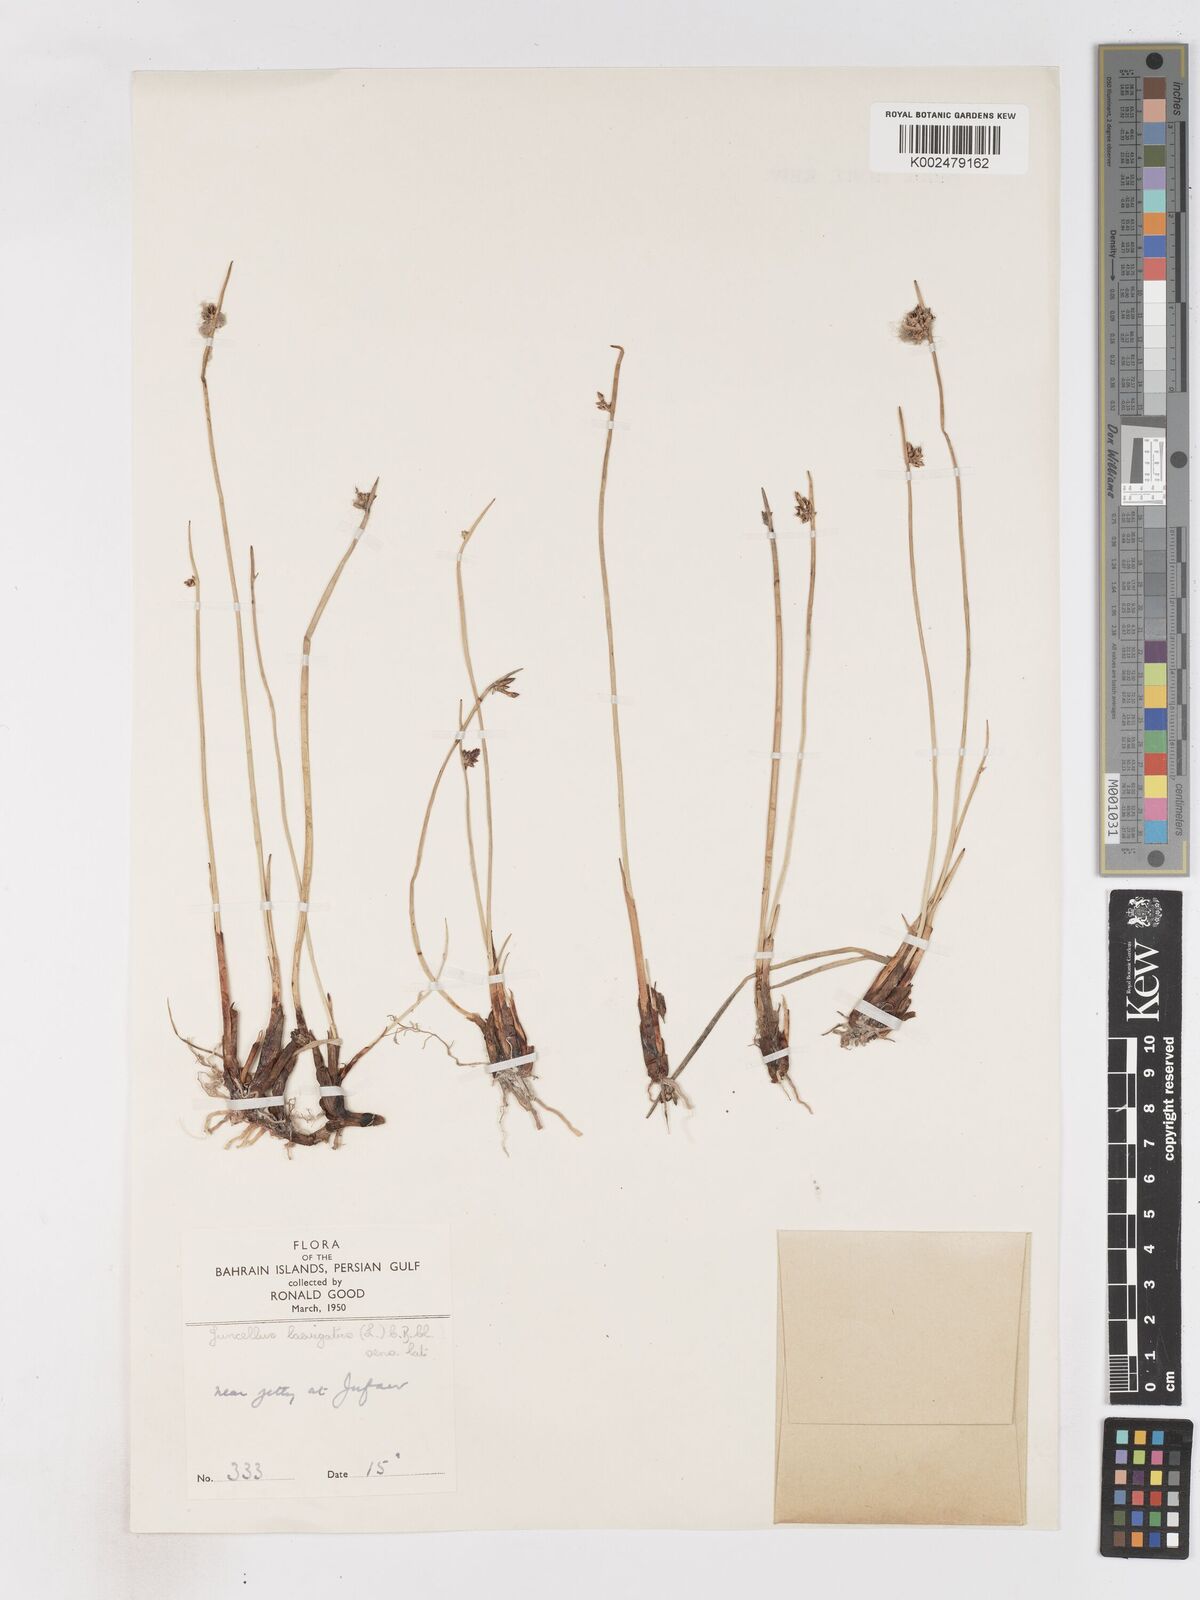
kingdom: Plantae
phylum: Tracheophyta
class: Liliopsida
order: Poales
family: Cyperaceae
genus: Cyperus
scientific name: Cyperus laevigatus
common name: Smooth flat sedge
